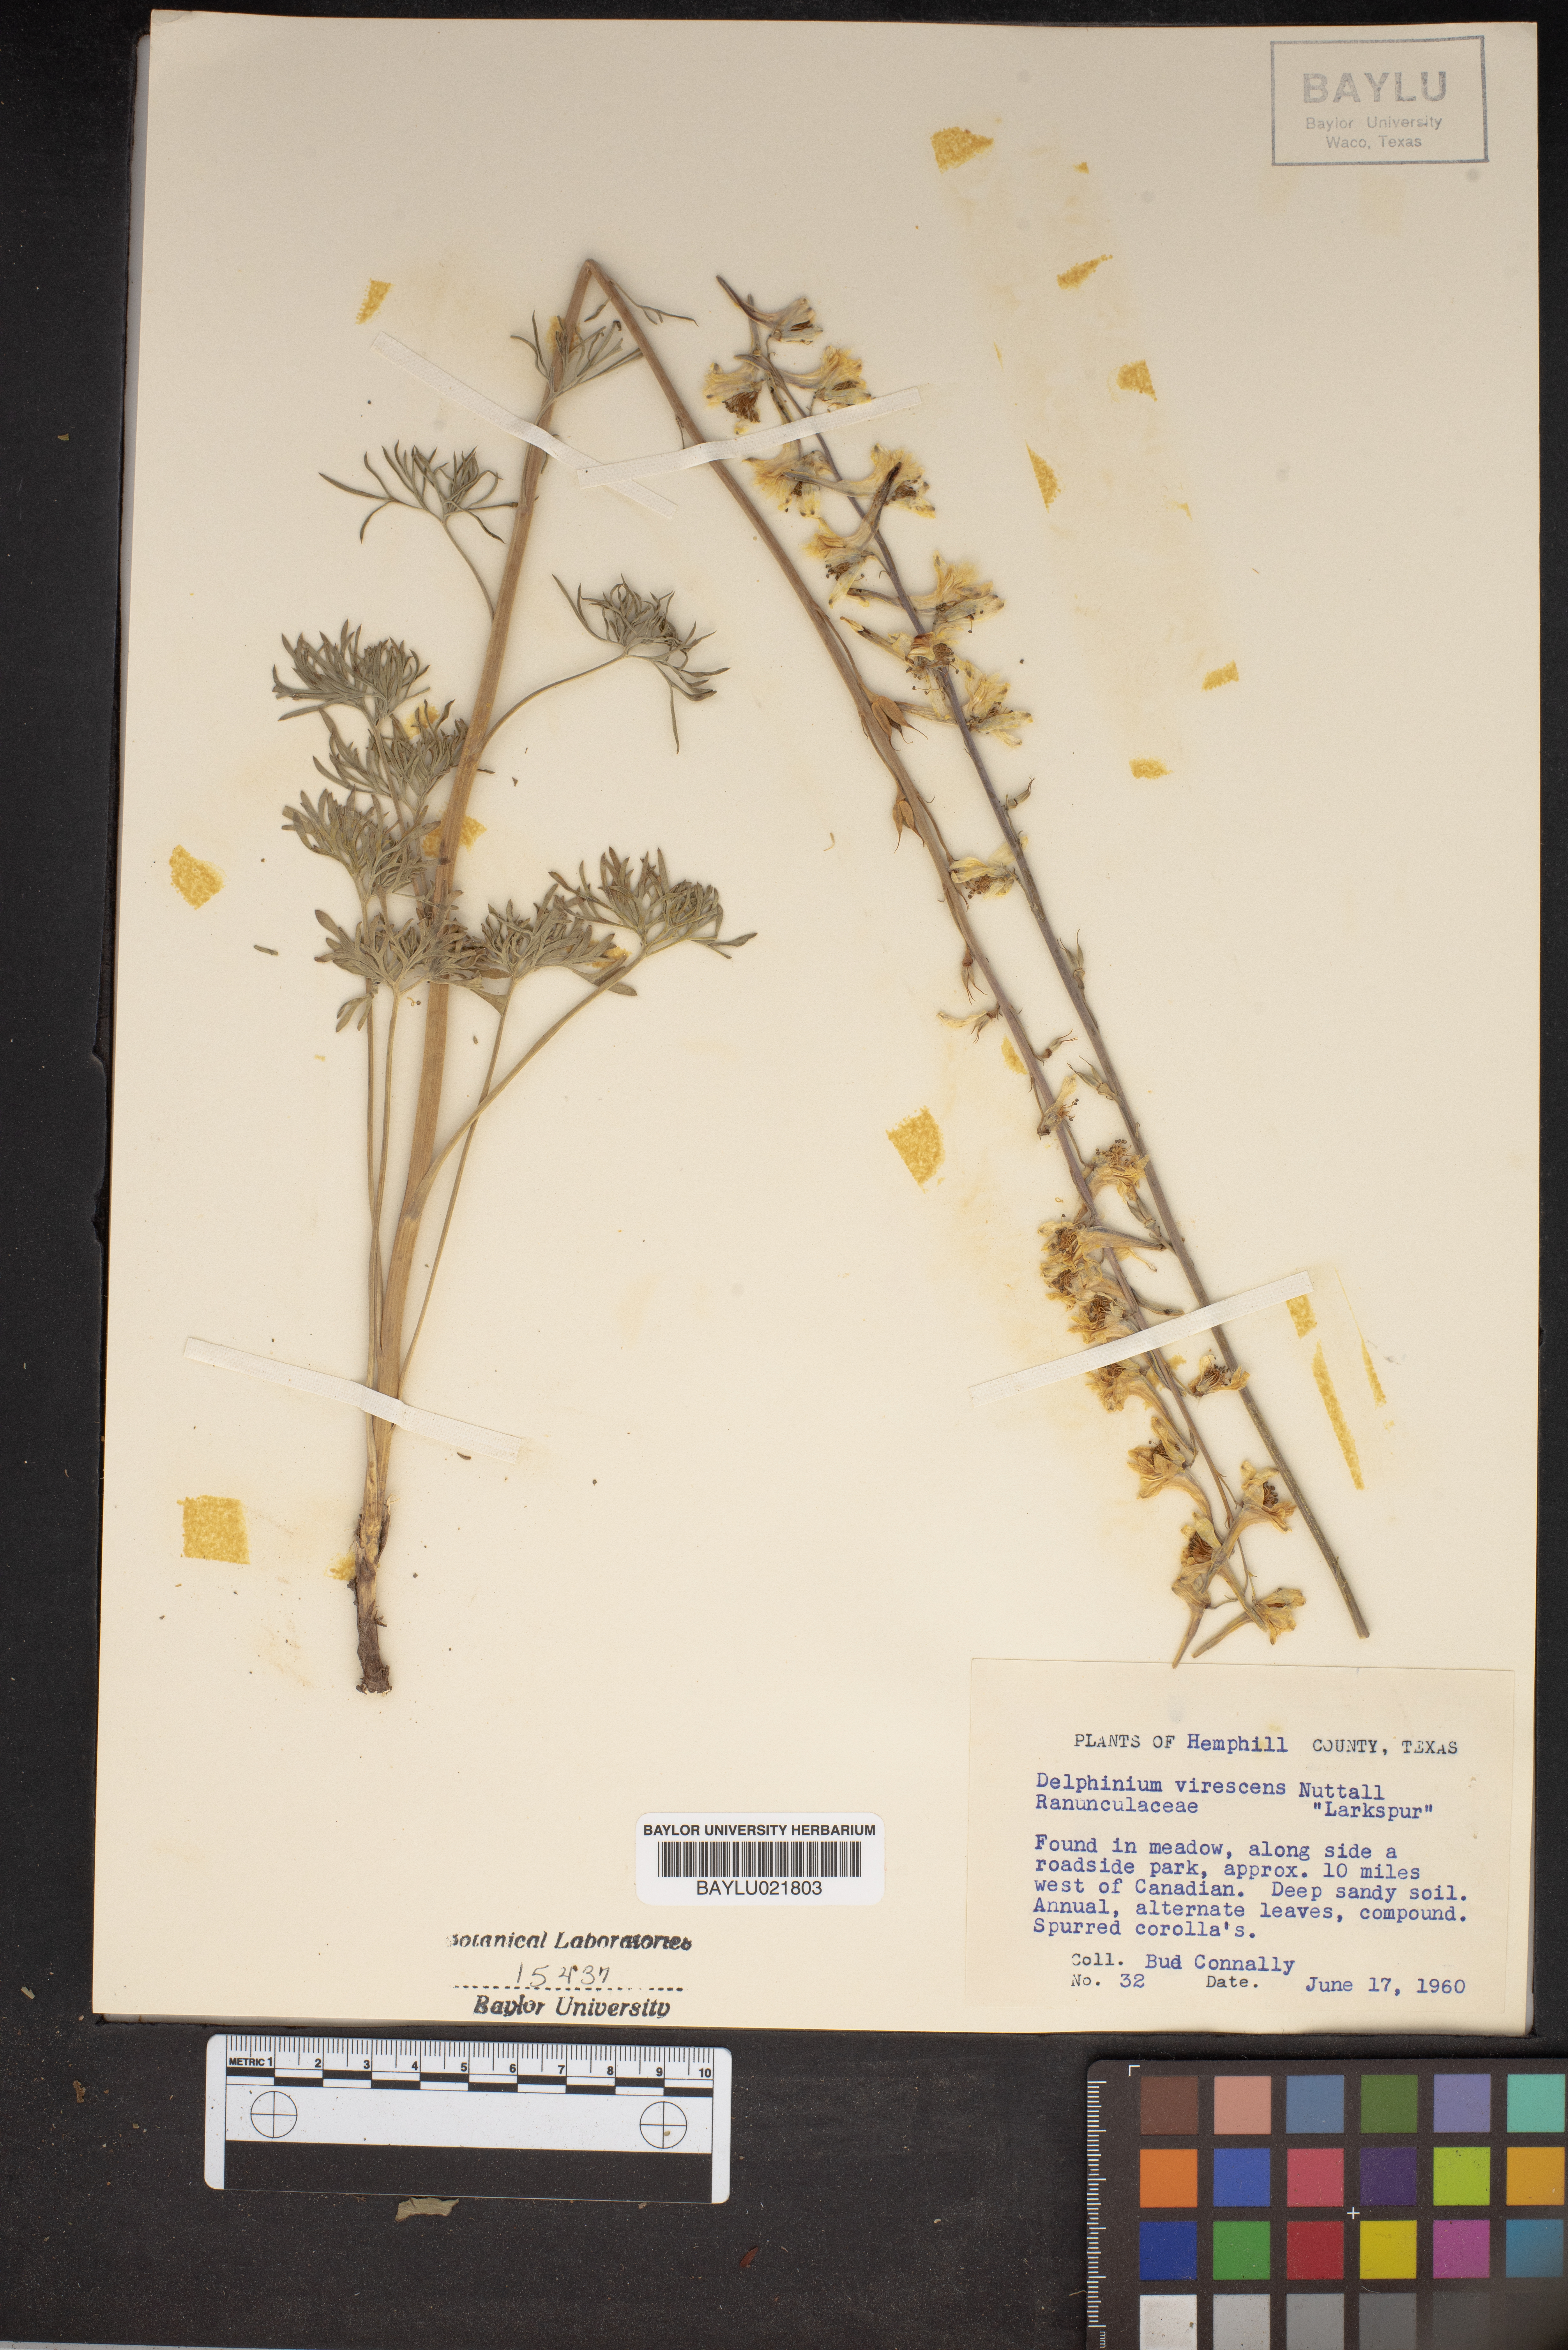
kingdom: Plantae
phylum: Tracheophyta
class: Magnoliopsida
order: Ranunculales
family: Ranunculaceae
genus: Delphinium
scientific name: Delphinium carolinianum
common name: Carolina larkspur
